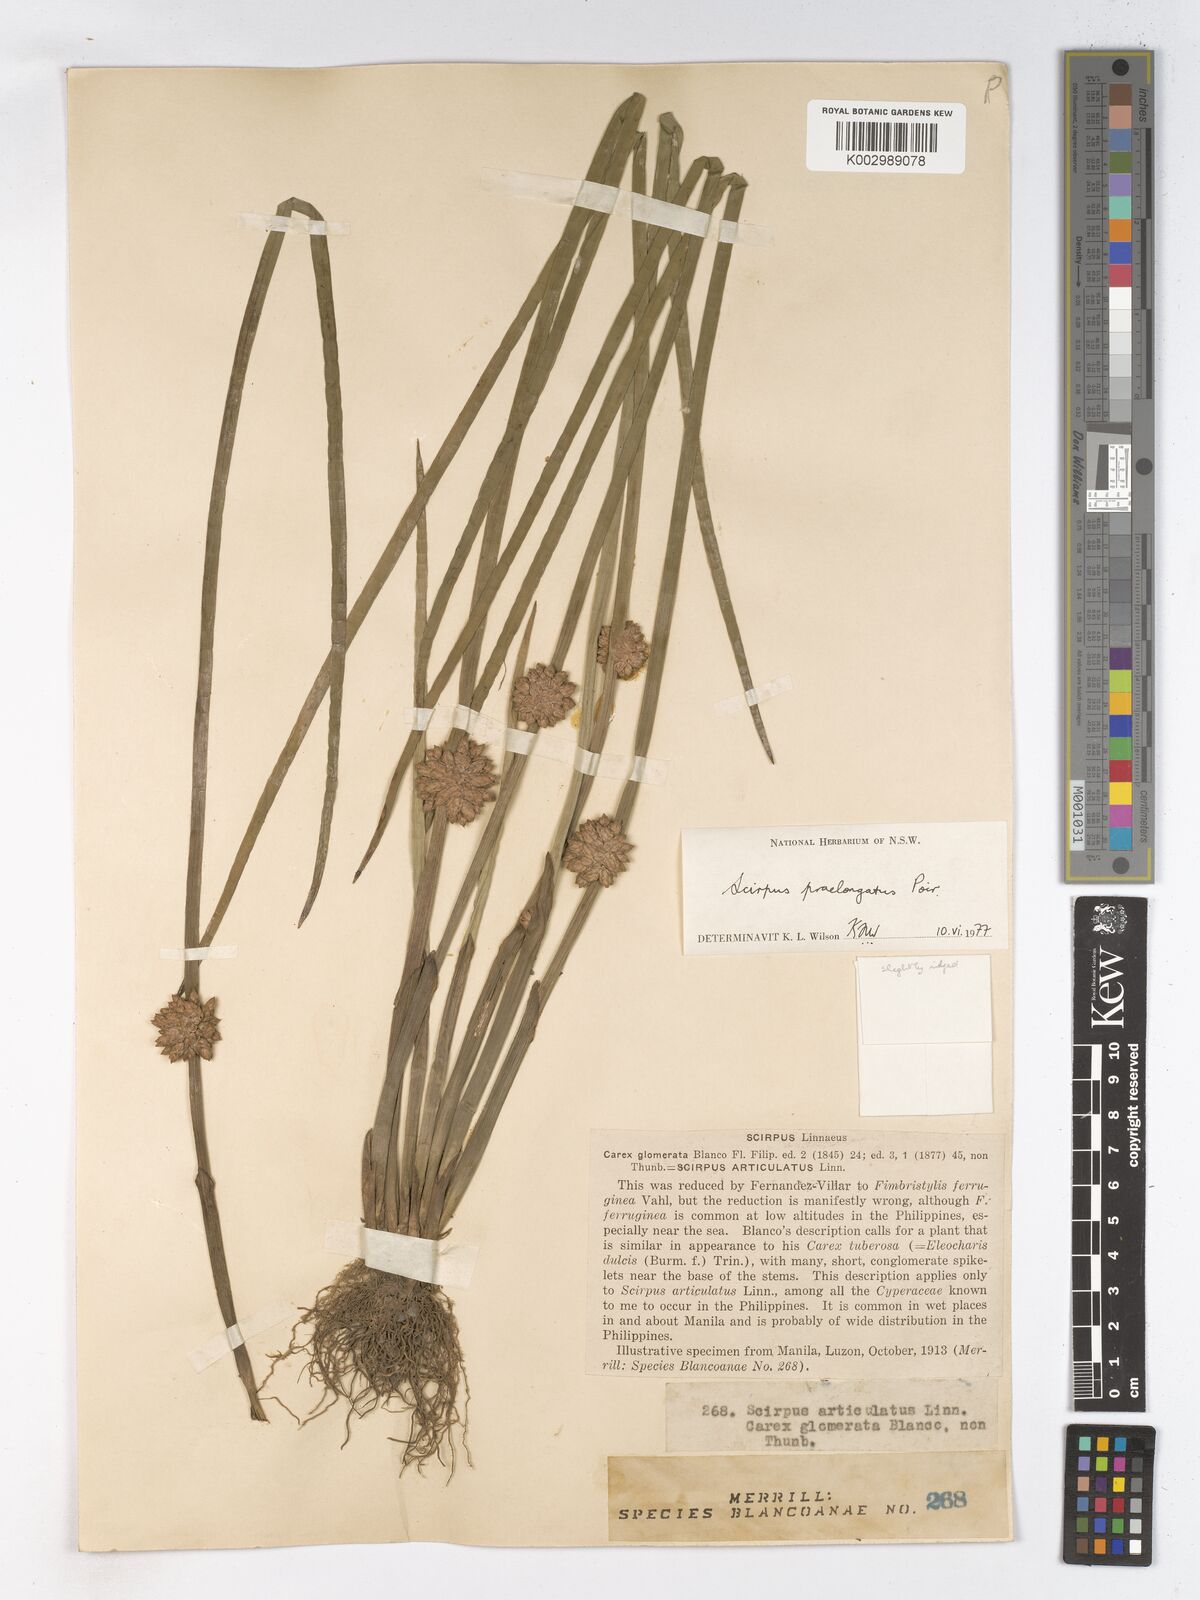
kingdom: Plantae
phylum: Tracheophyta
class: Liliopsida
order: Poales
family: Cyperaceae
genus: Schoenoplectiella
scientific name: Schoenoplectiella praelongata
